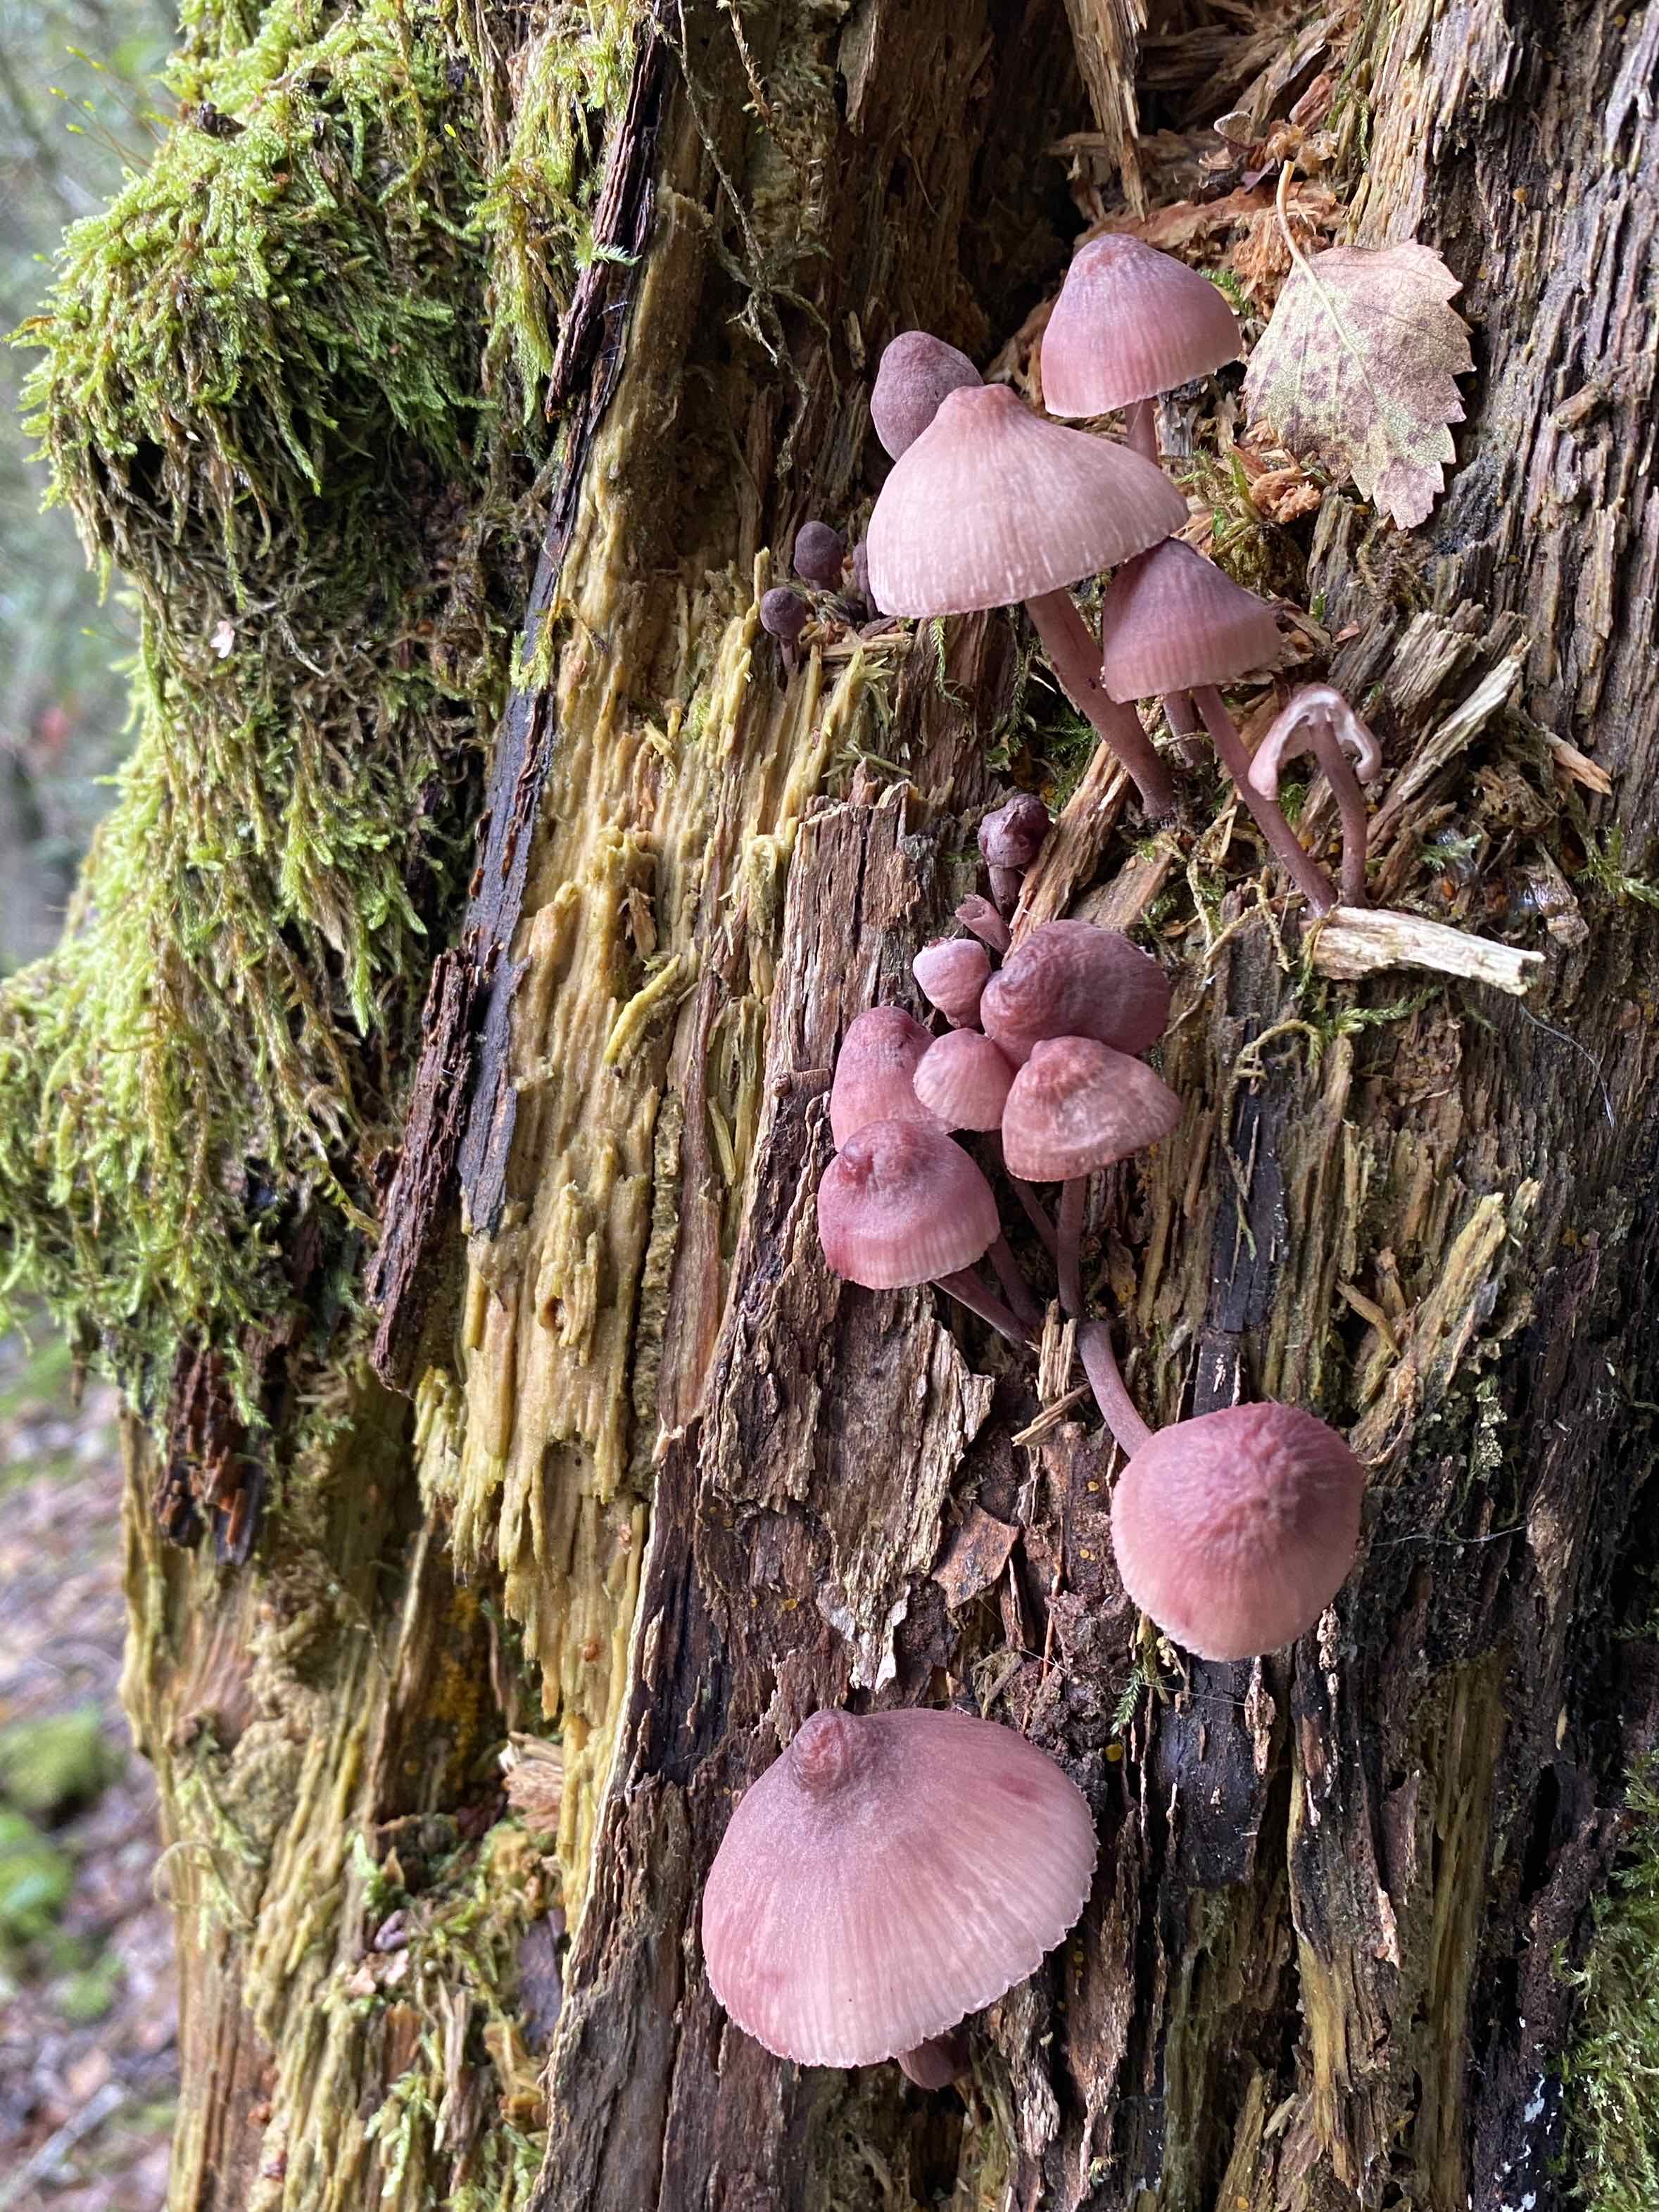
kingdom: Fungi
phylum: Basidiomycota
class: Agaricomycetes
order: Agaricales
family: Mycenaceae
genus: Mycena
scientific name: Mycena haematopus
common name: blødende huesvamp
